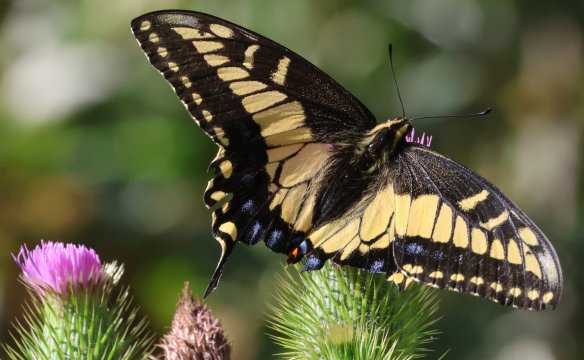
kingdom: Animalia
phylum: Arthropoda
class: Insecta
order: Lepidoptera
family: Papilionidae
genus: Papilio
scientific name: Papilio zelicaon
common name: Anise Swallowtail
